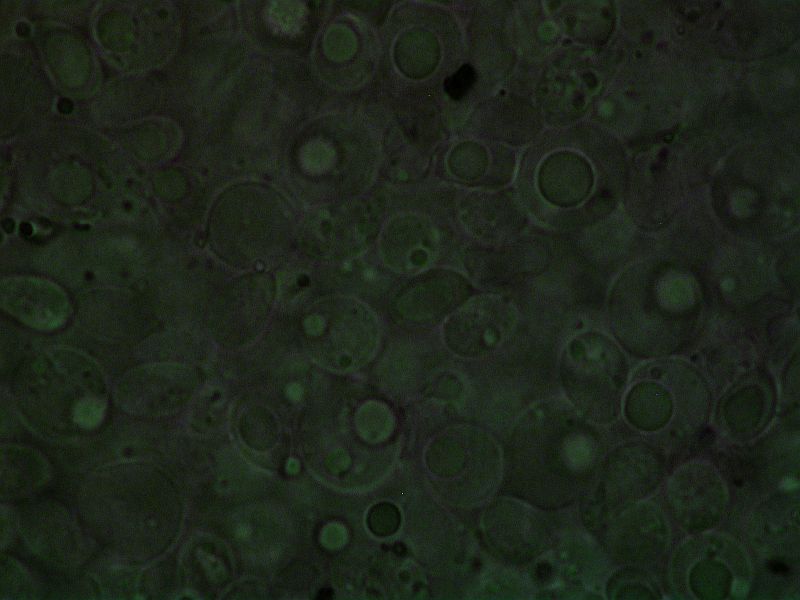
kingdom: Fungi
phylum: Basidiomycota
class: Agaricomycetes
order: Agaricales
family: Pseudoclitocybaceae
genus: Musumecia
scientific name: Musumecia bettlachensis
